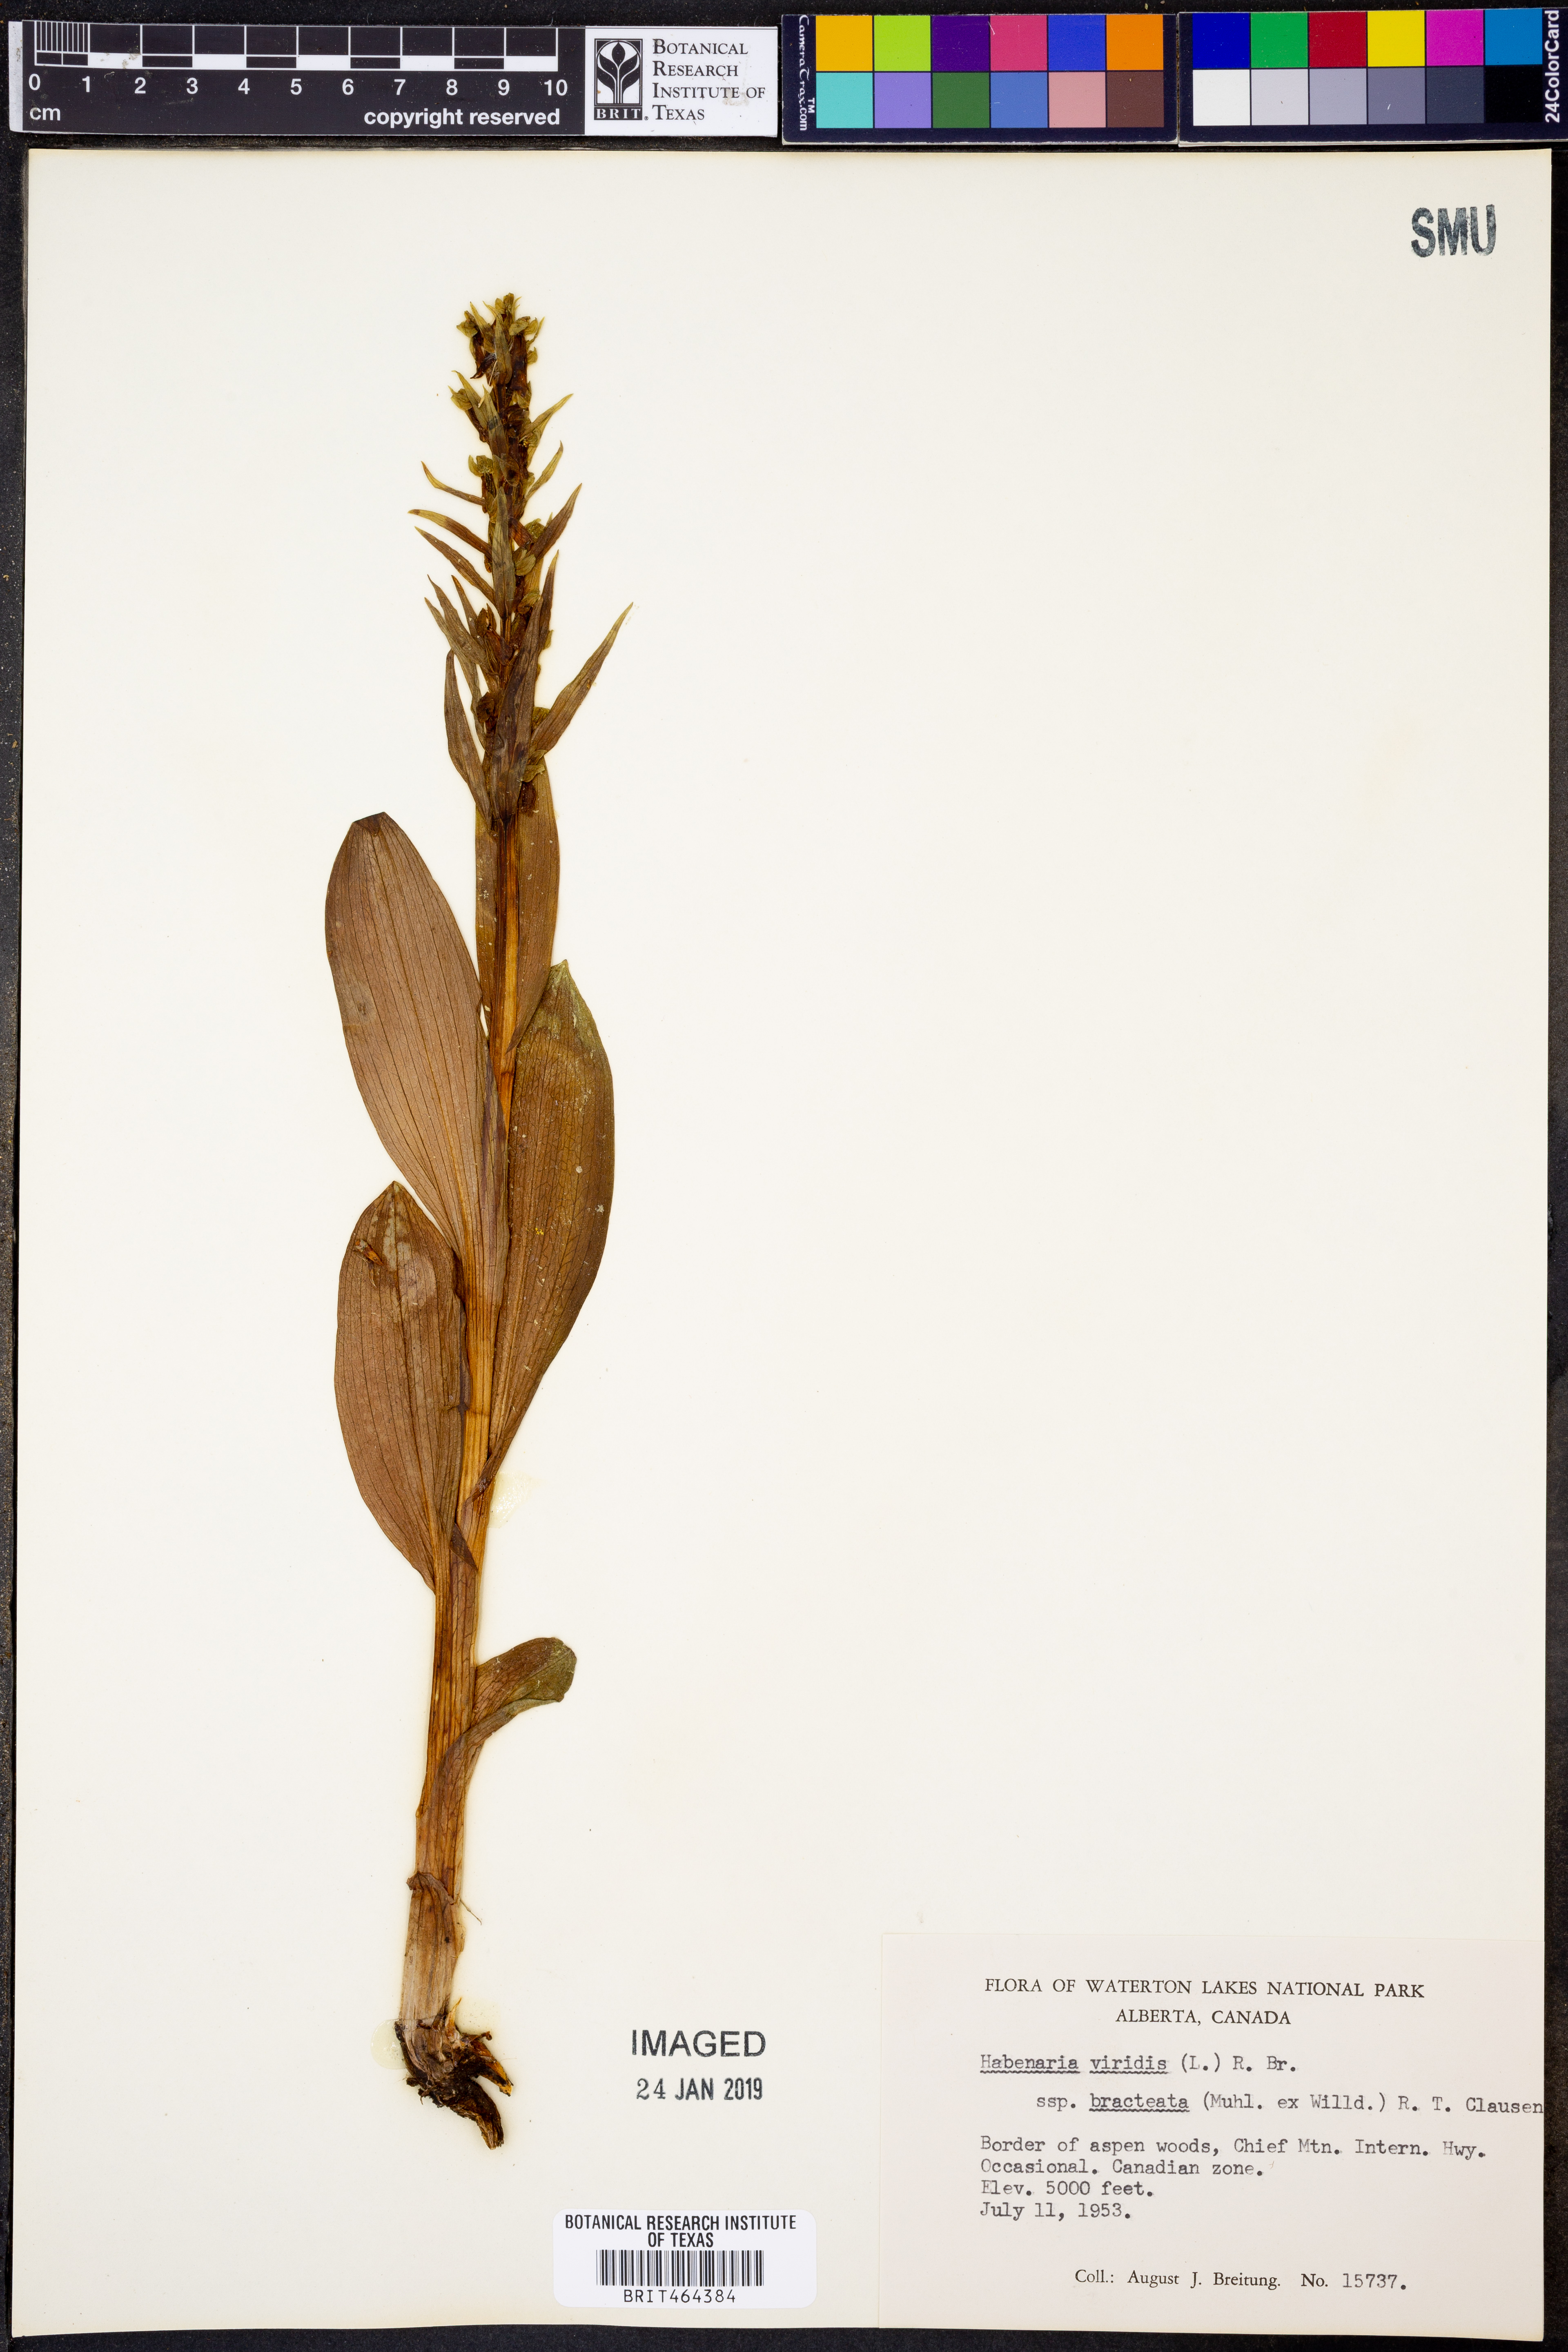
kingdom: Plantae
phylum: Tracheophyta
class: Liliopsida
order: Asparagales
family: Orchidaceae
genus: Dactylorhiza
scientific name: Dactylorhiza viridis
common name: Longbract frog orchid
